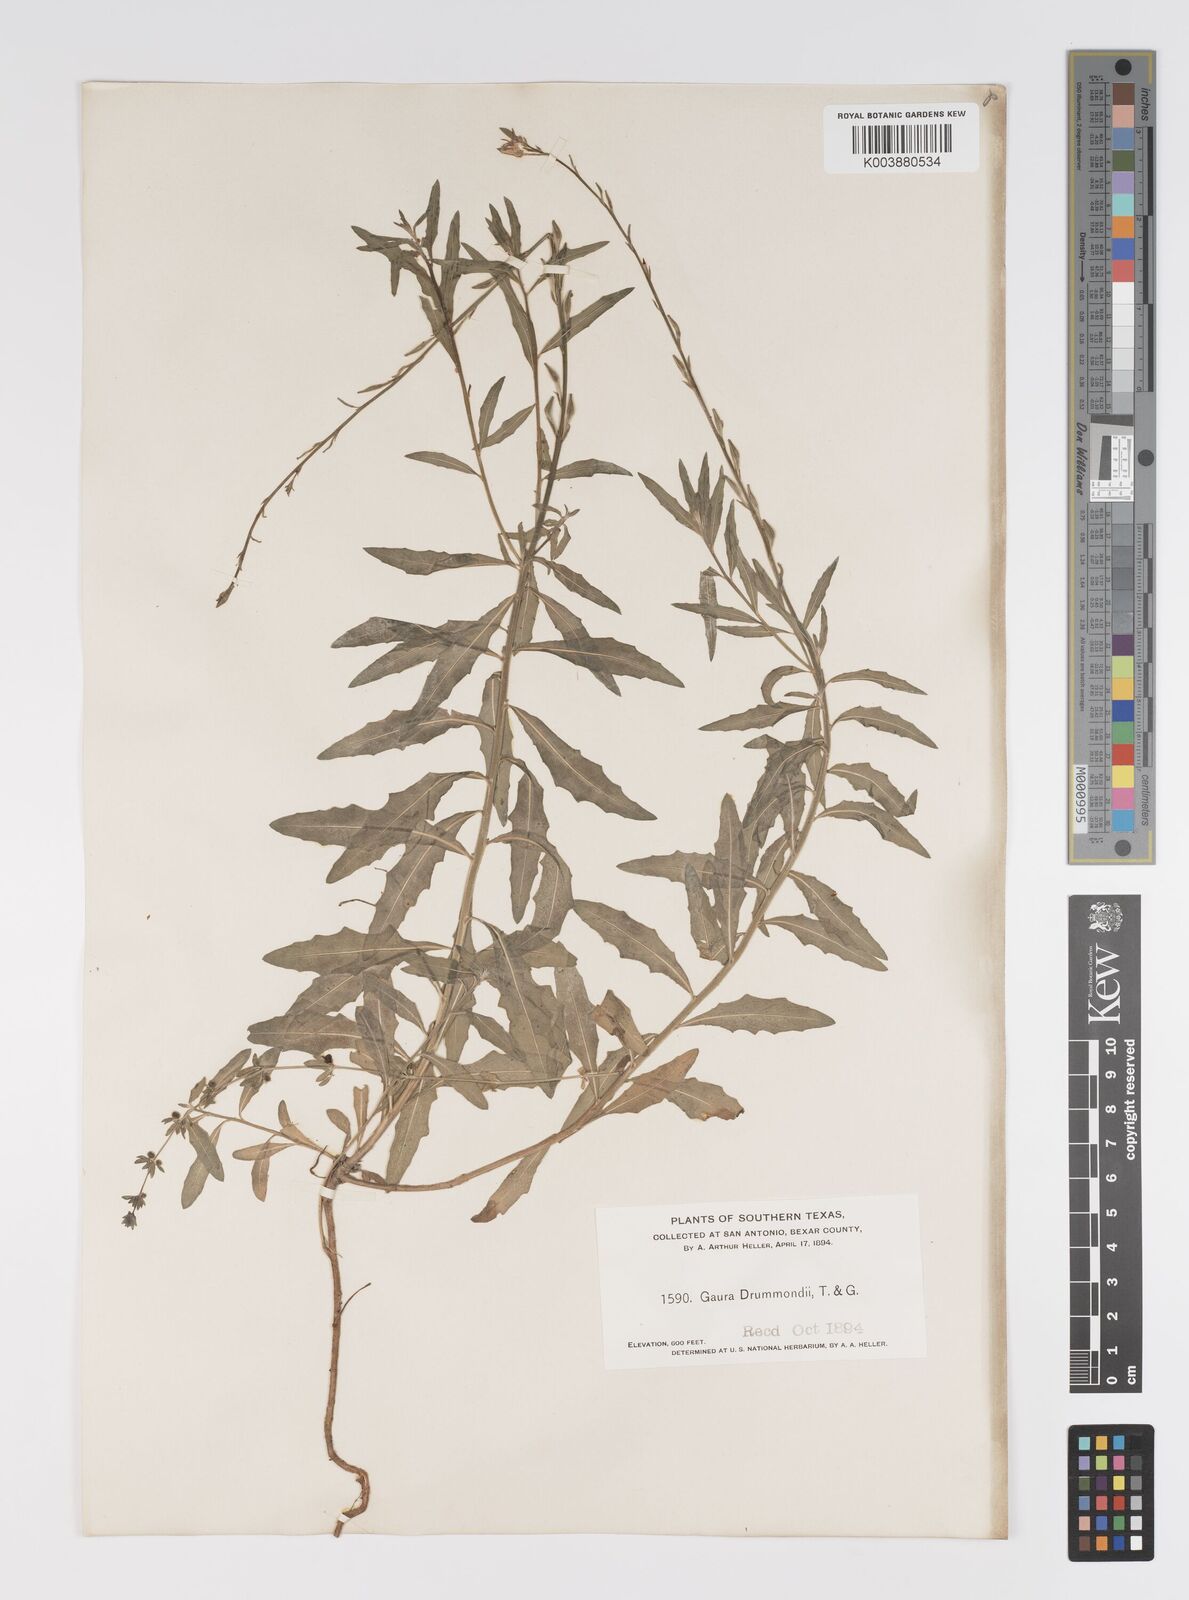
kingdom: Plantae
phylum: Tracheophyta
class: Magnoliopsida
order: Myrtales
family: Onagraceae
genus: Oenothera
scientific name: Oenothera hispida
